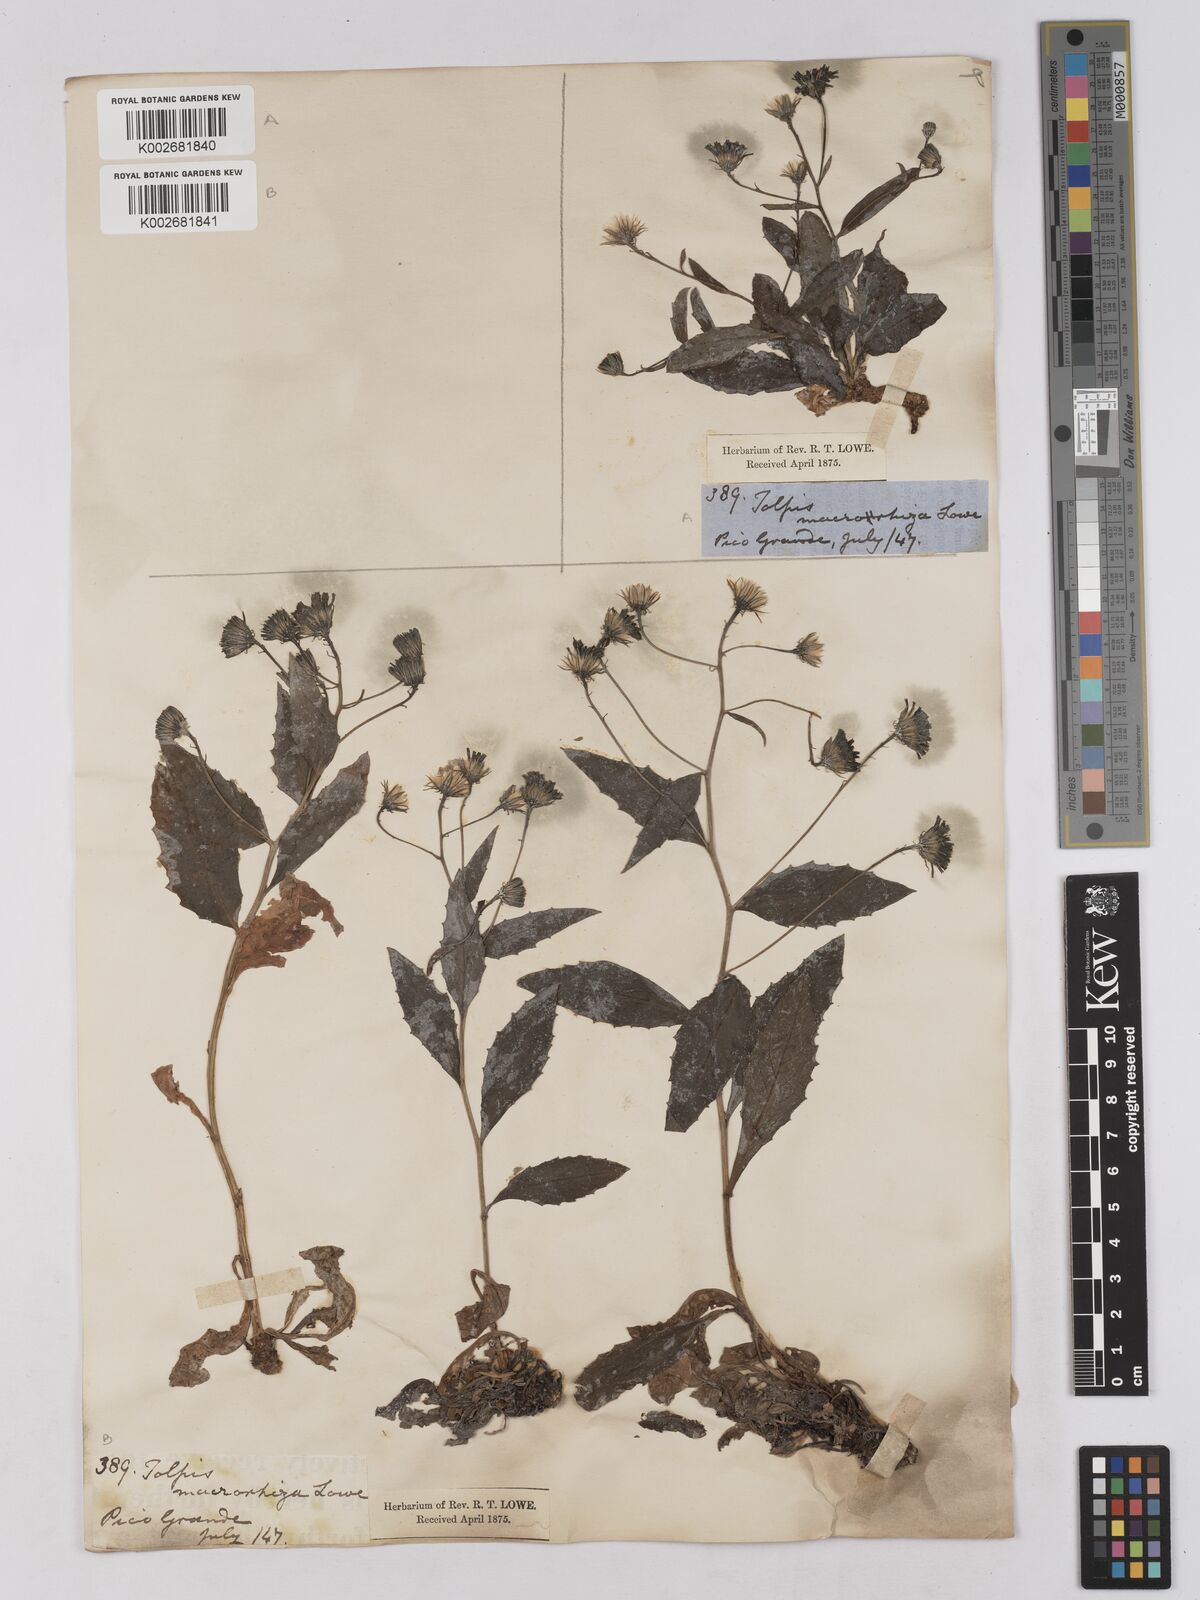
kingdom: Plantae
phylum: Tracheophyta
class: Magnoliopsida
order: Asterales
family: Asteraceae
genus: Tolpis
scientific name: Tolpis macrorhiza
